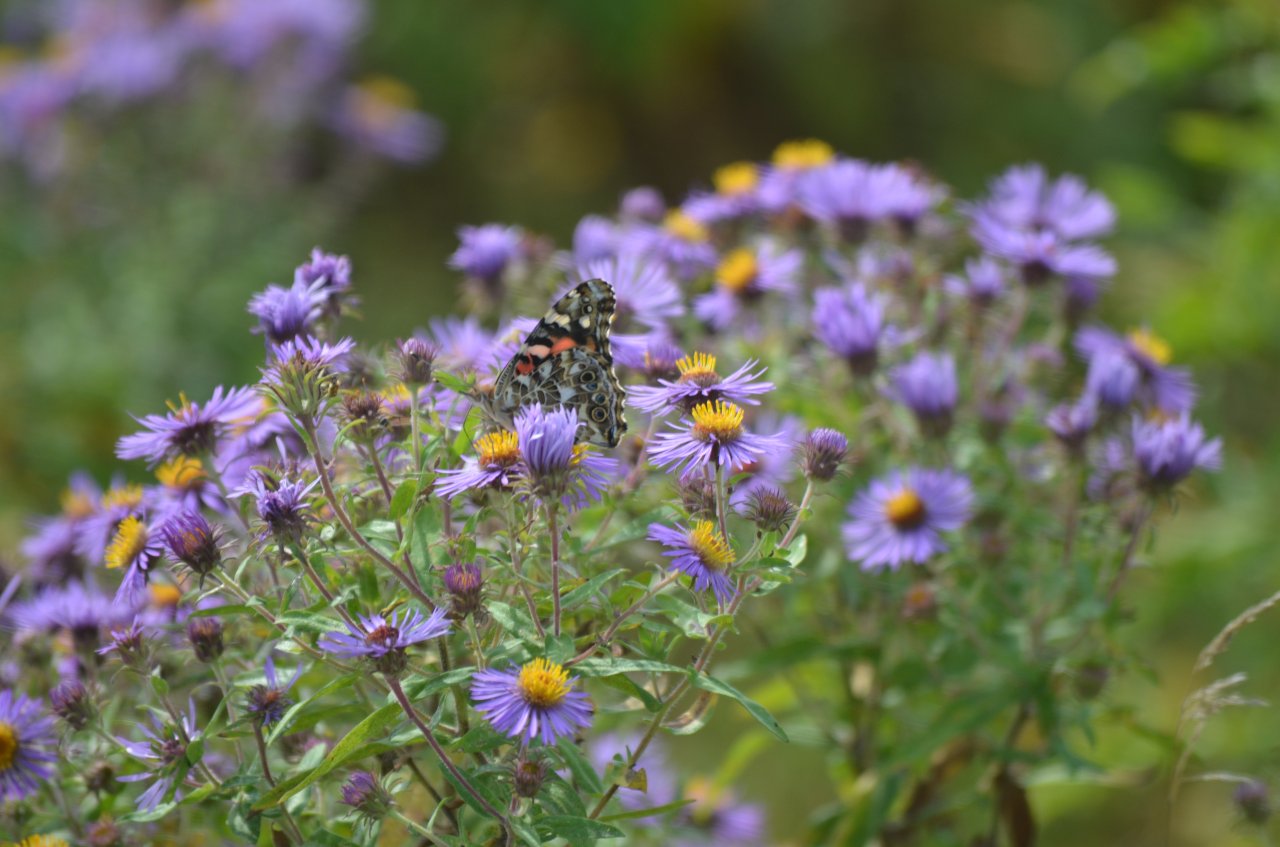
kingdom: Animalia
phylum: Arthropoda
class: Insecta
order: Lepidoptera
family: Nymphalidae
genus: Vanessa
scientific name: Vanessa cardui
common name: Painted Lady
